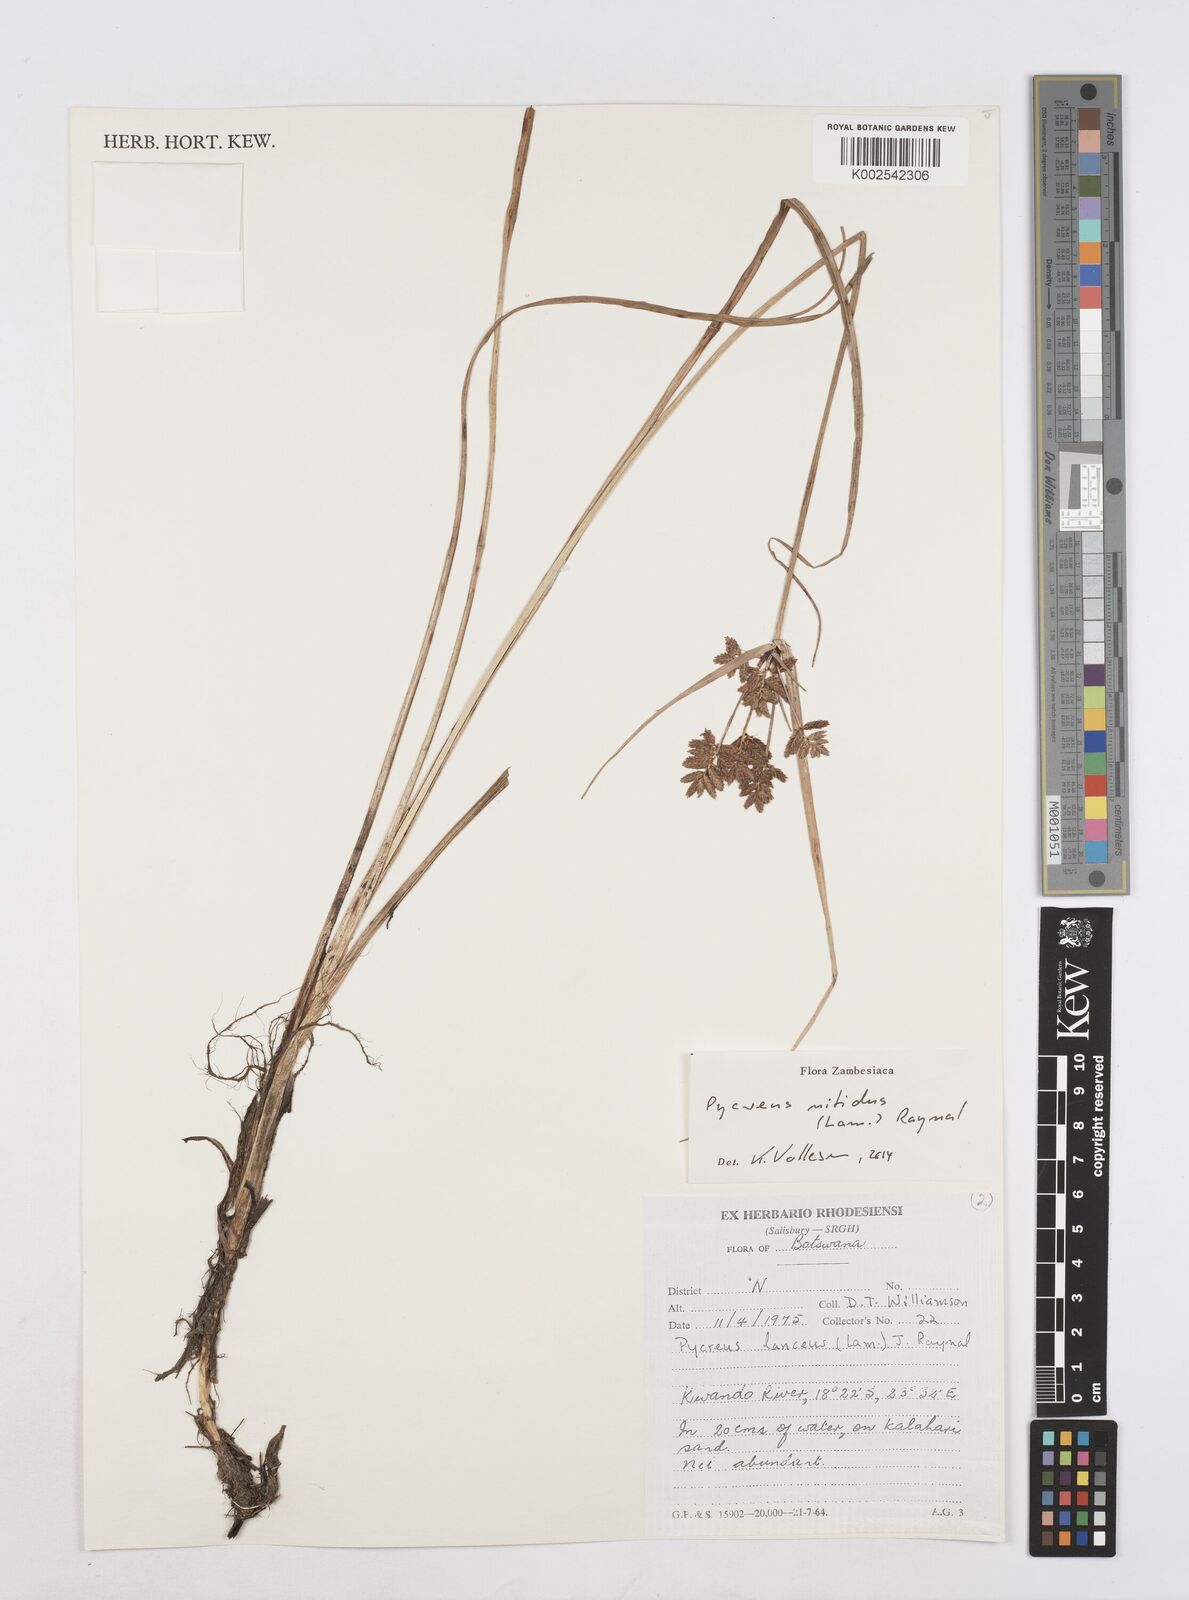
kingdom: Plantae
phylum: Tracheophyta
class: Liliopsida
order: Poales
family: Cyperaceae
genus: Cyperus
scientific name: Cyperus nitidus
